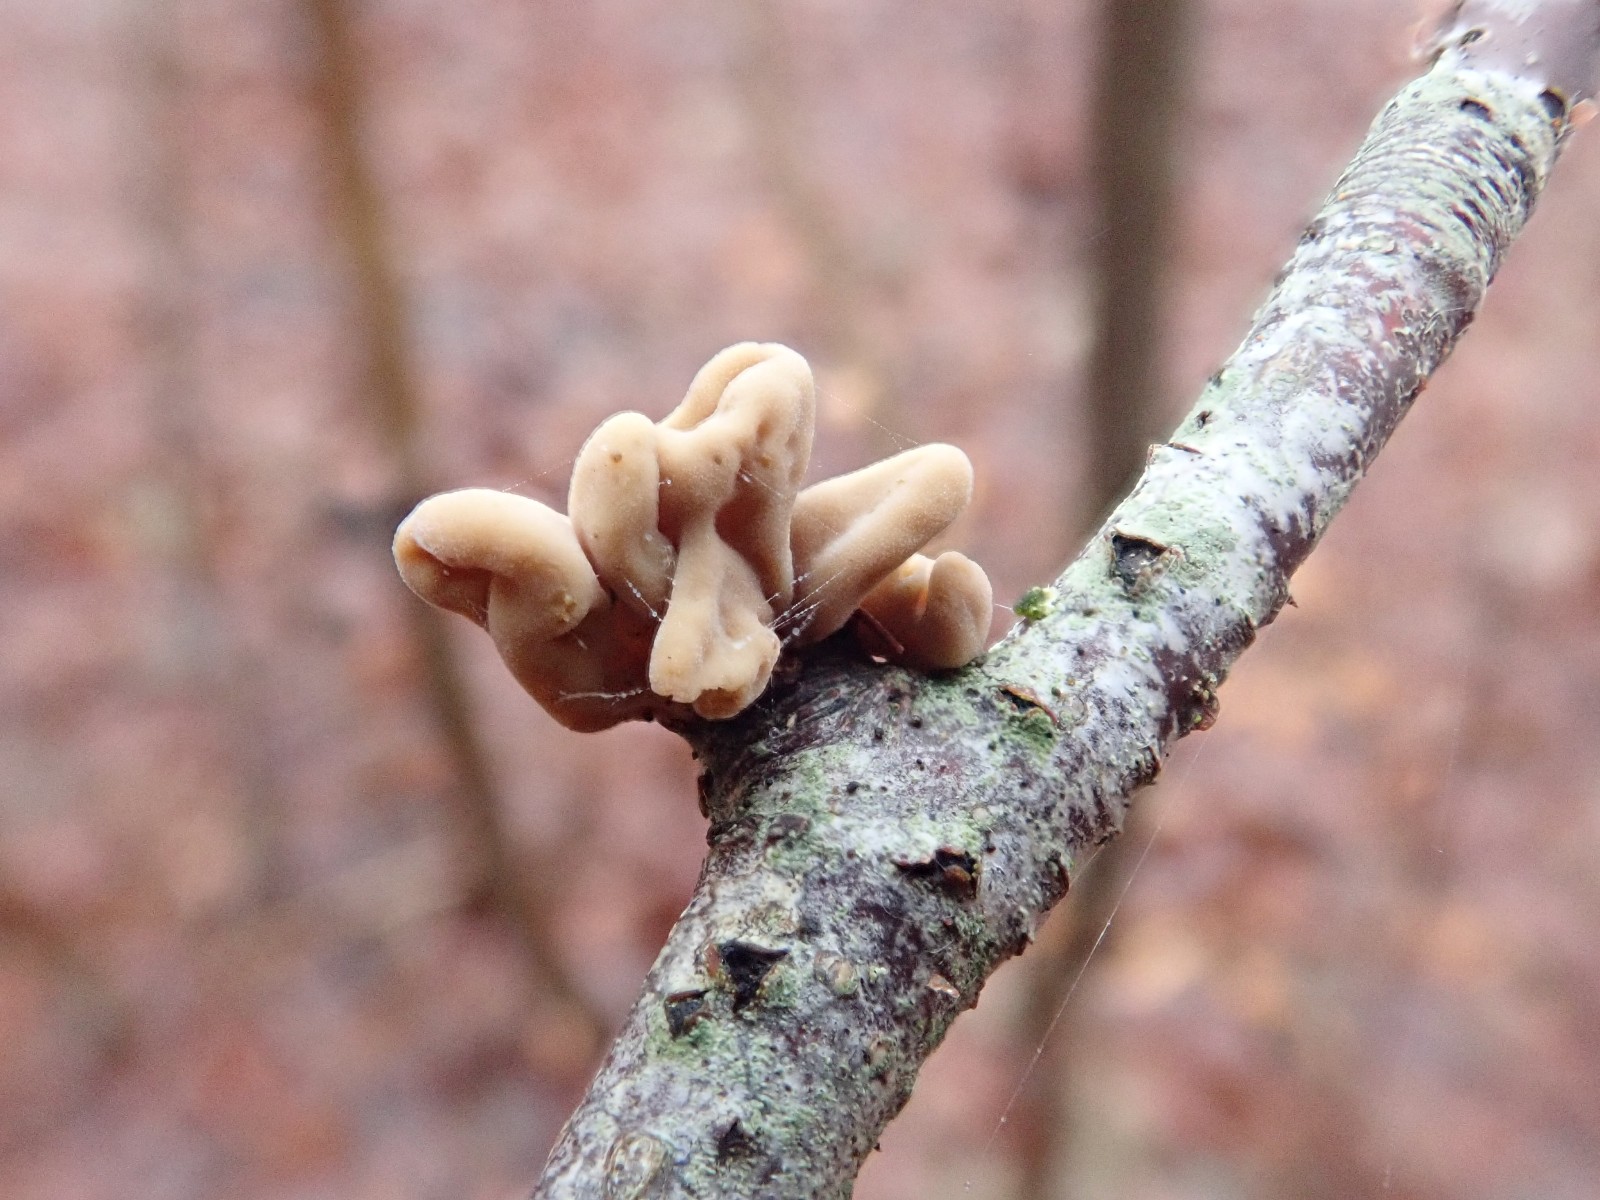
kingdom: Fungi
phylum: Basidiomycota
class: Agaricomycetes
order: Agaricales
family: Typhulaceae
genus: Typhula
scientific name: Typhula contorta
